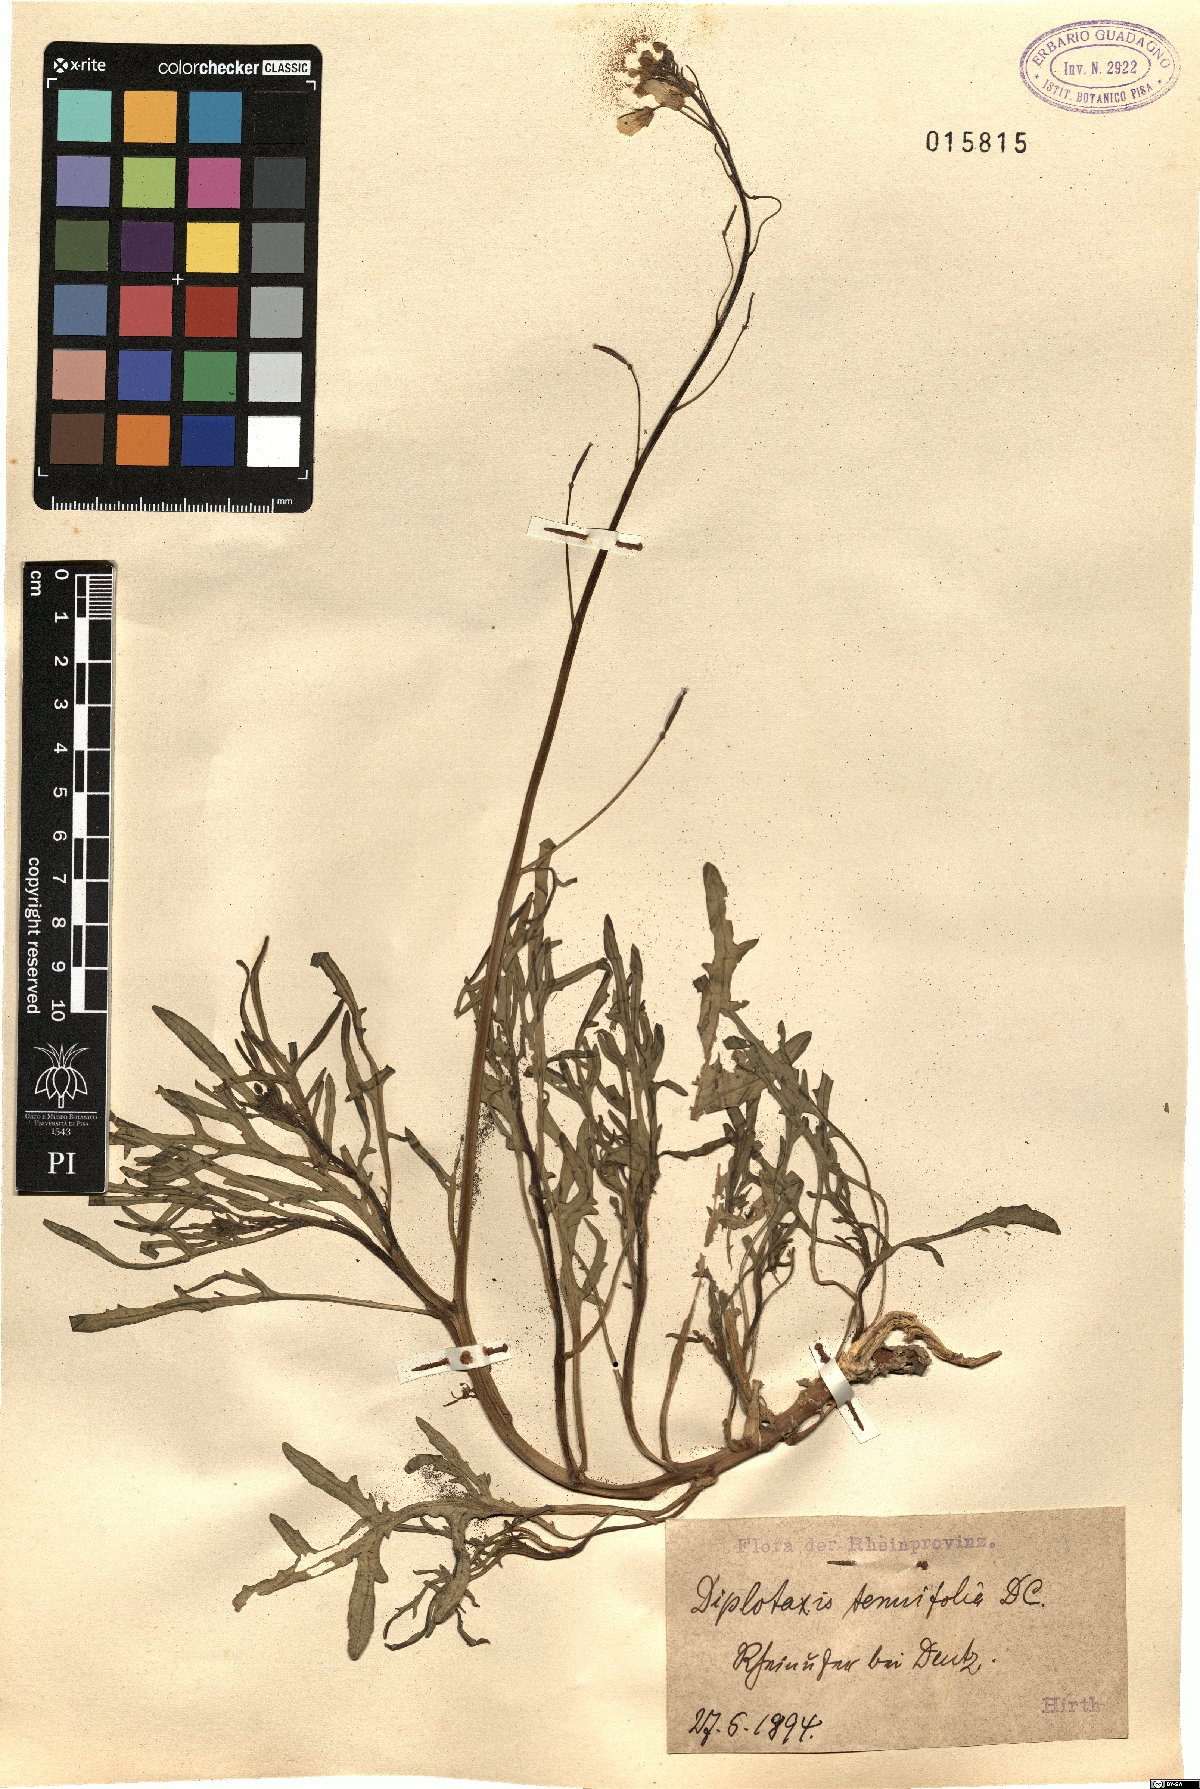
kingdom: Plantae
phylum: Tracheophyta
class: Magnoliopsida
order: Brassicales
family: Brassicaceae
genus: Diplotaxis
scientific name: Diplotaxis tenuifolia
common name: Perennial wall-rocket
